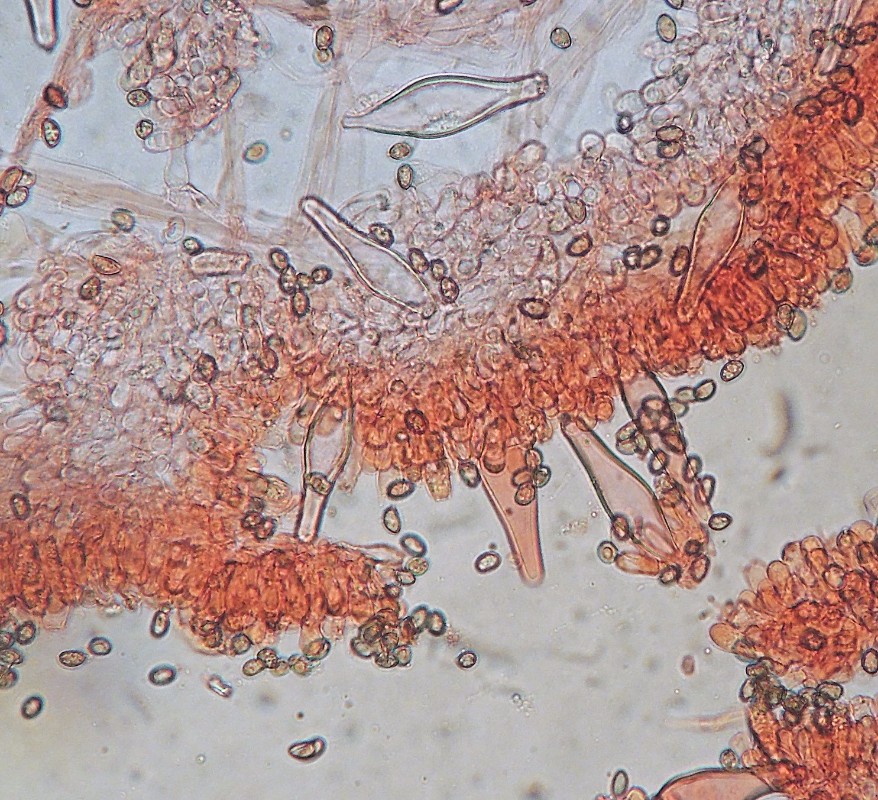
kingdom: Fungi
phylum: Basidiomycota
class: Agaricomycetes
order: Agaricales
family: Inocybaceae
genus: Inocybe
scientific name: Inocybe
